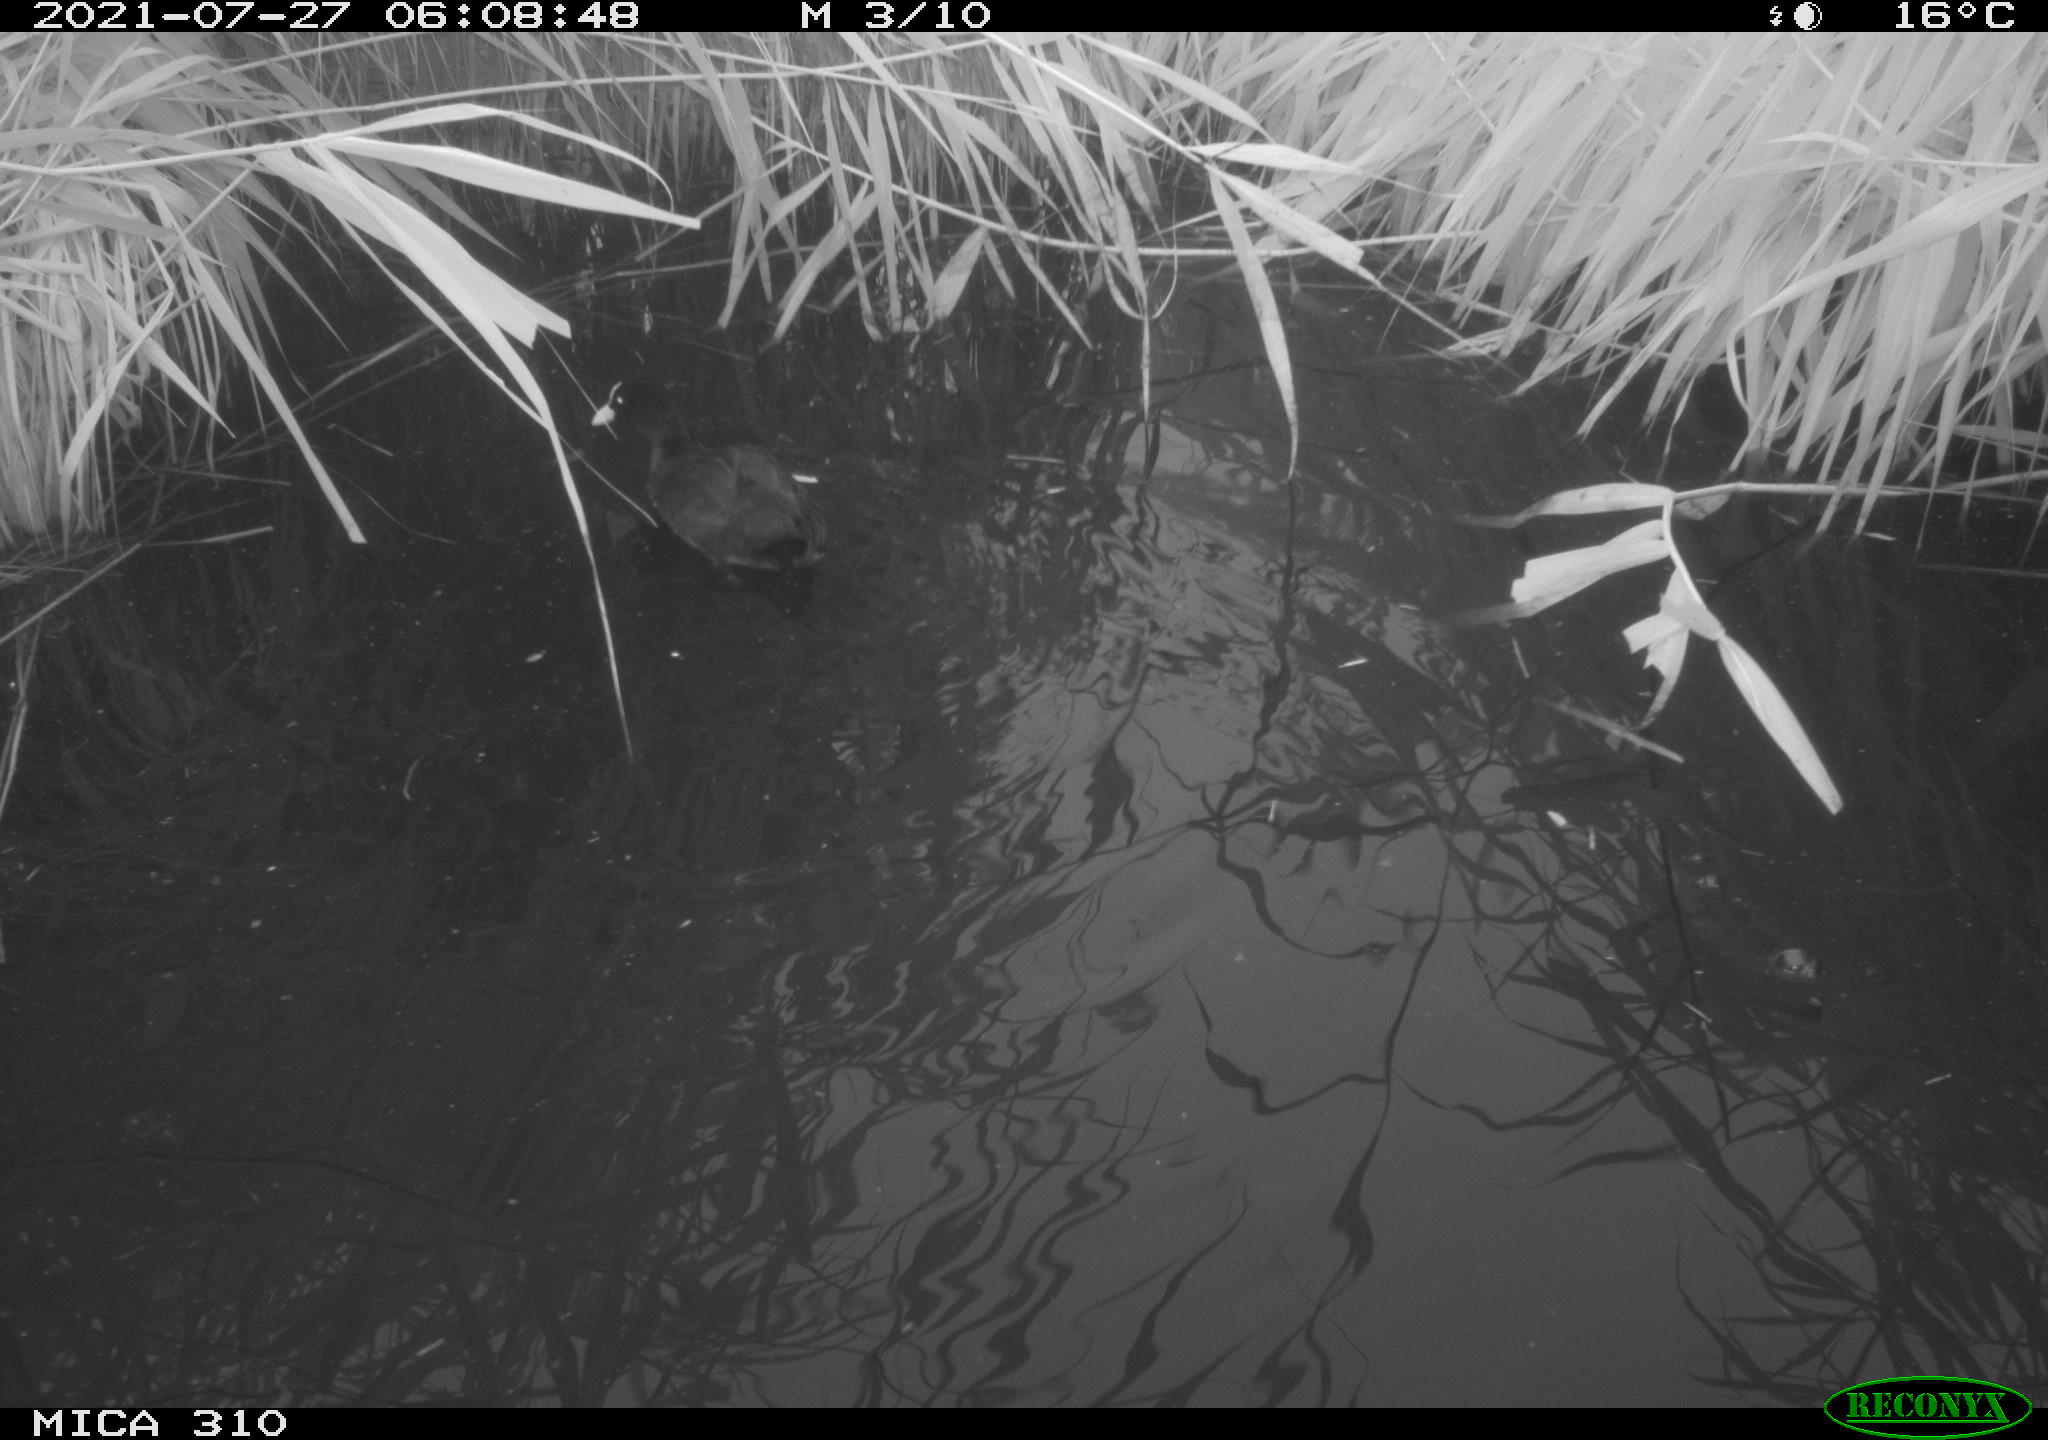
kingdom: Animalia
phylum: Chordata
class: Aves
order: Gruiformes
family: Rallidae
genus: Gallinula
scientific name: Gallinula chloropus
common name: Common moorhen
